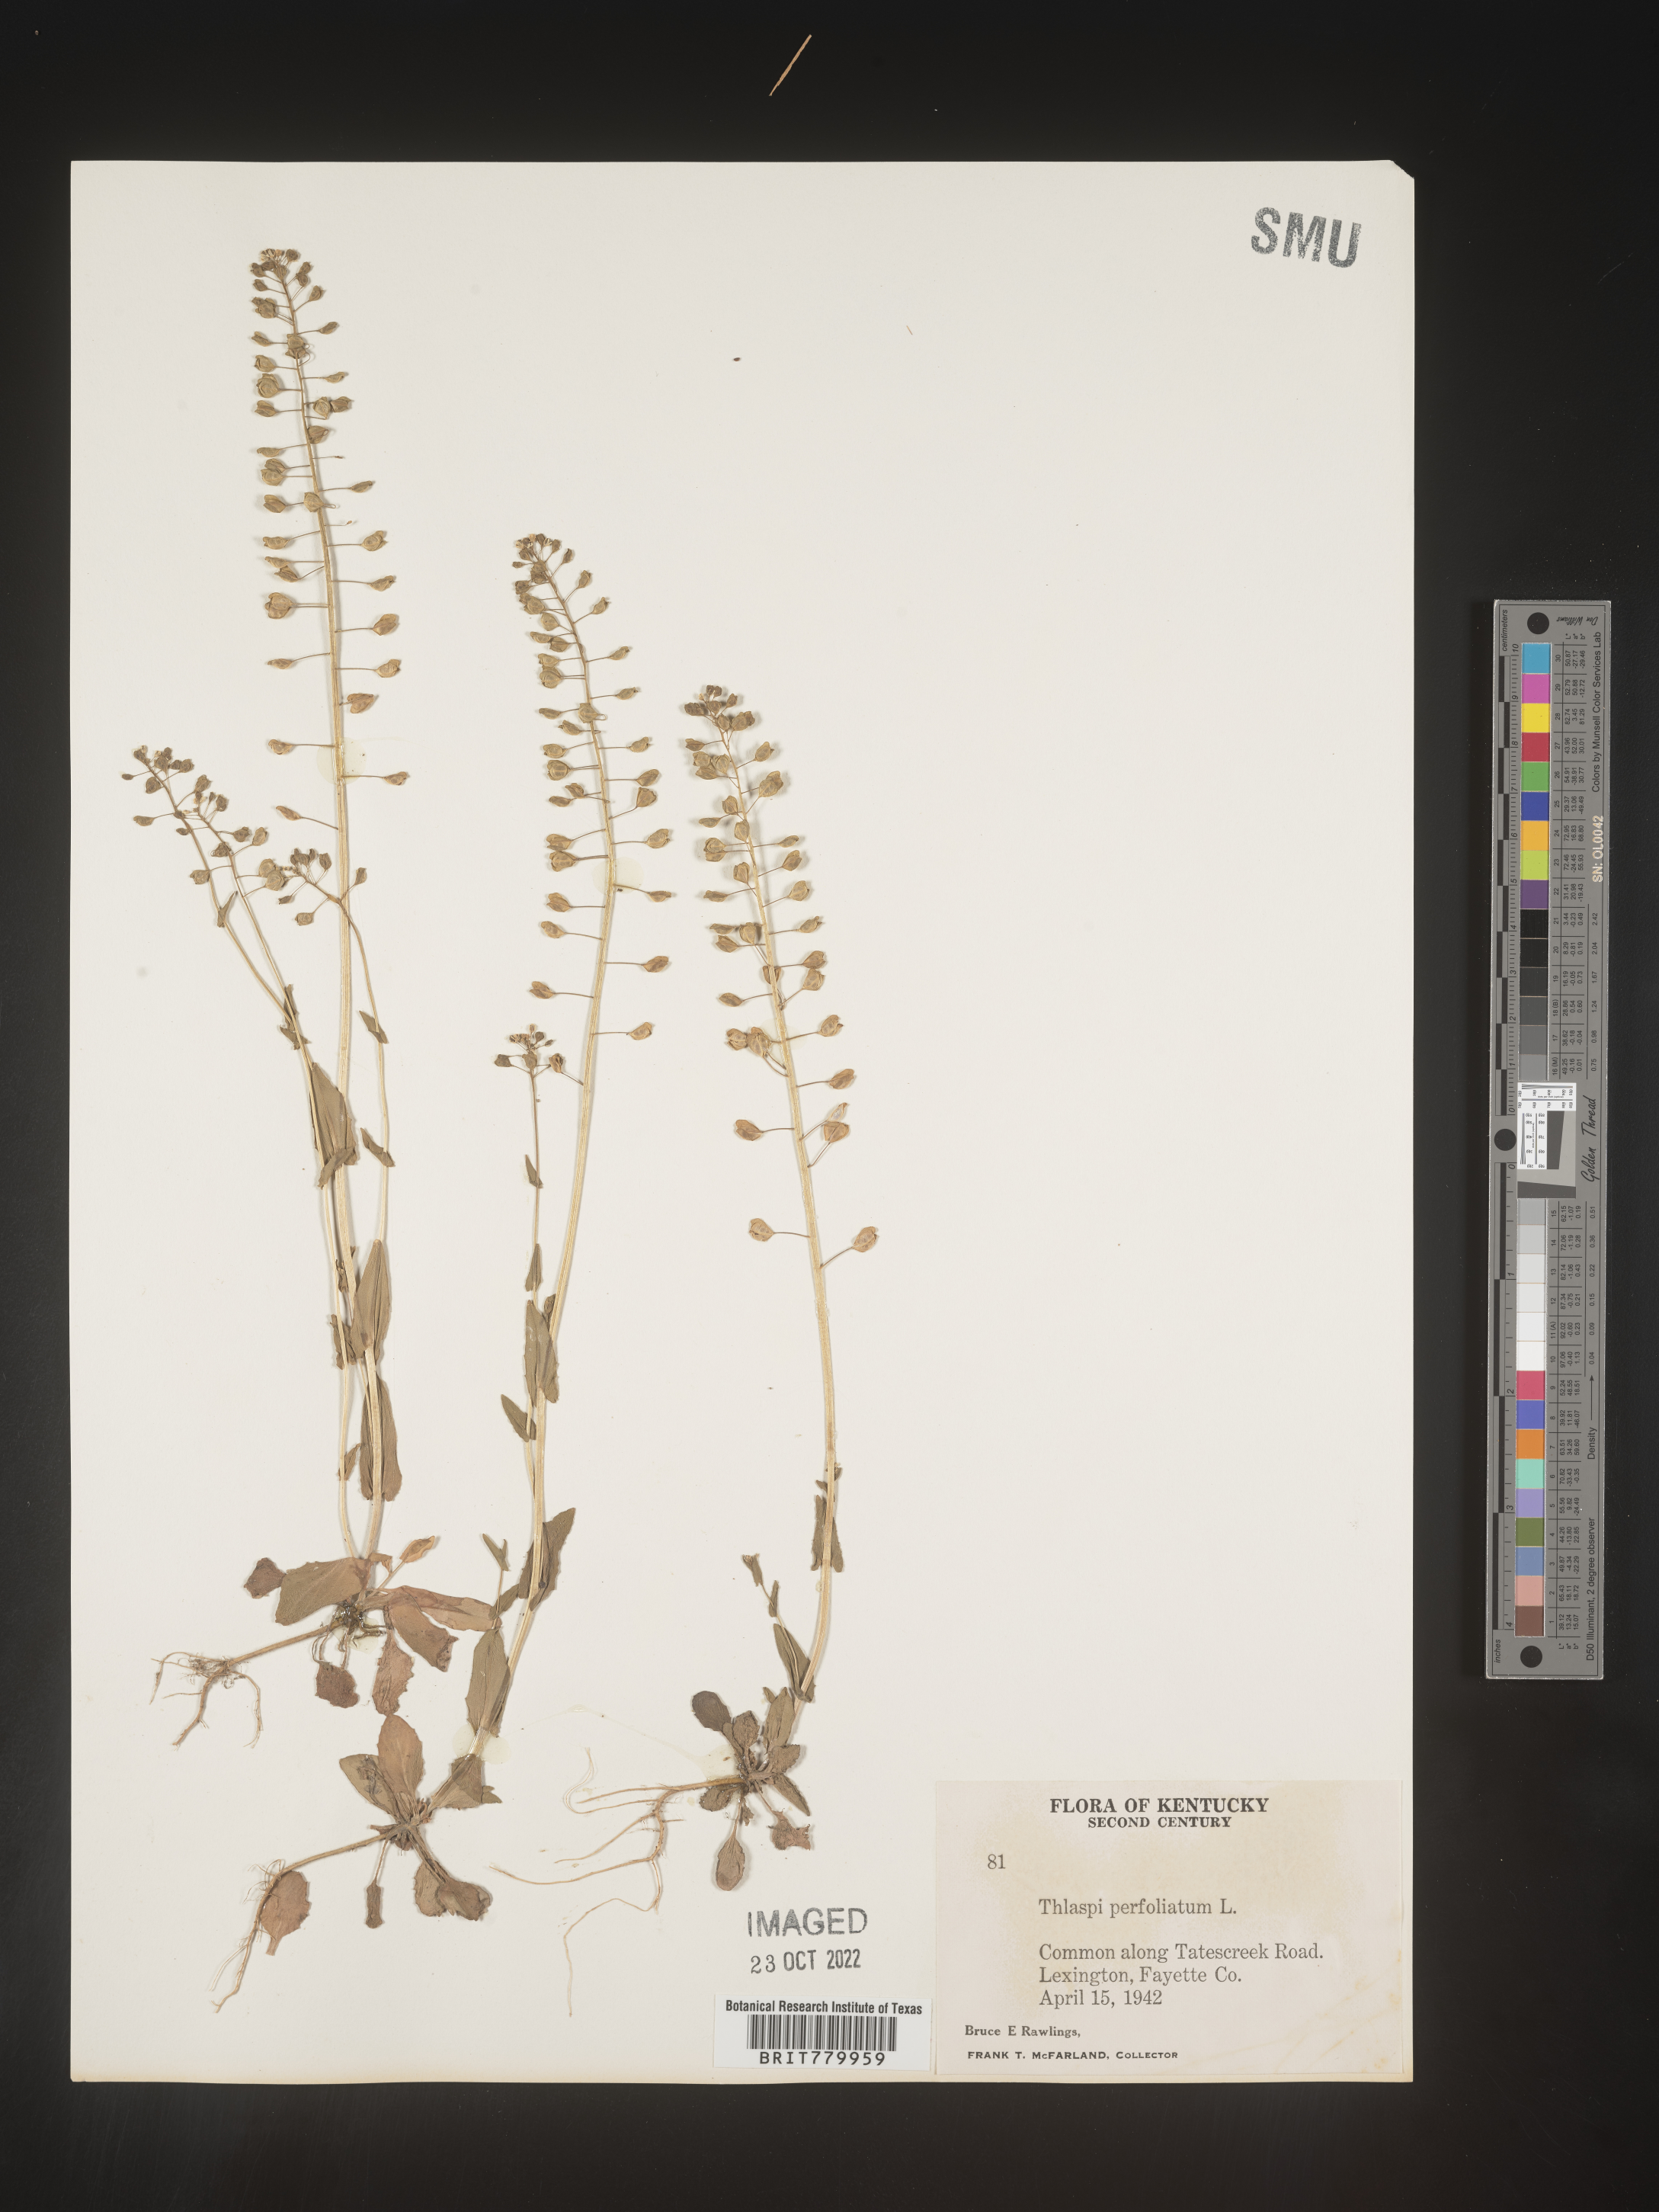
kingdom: Plantae
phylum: Tracheophyta
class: Magnoliopsida
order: Brassicales
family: Brassicaceae
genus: Thlaspi
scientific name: Thlaspi
